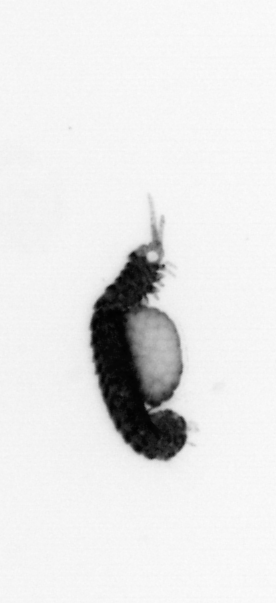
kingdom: Animalia
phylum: Annelida
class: Polychaeta
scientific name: Polychaeta
